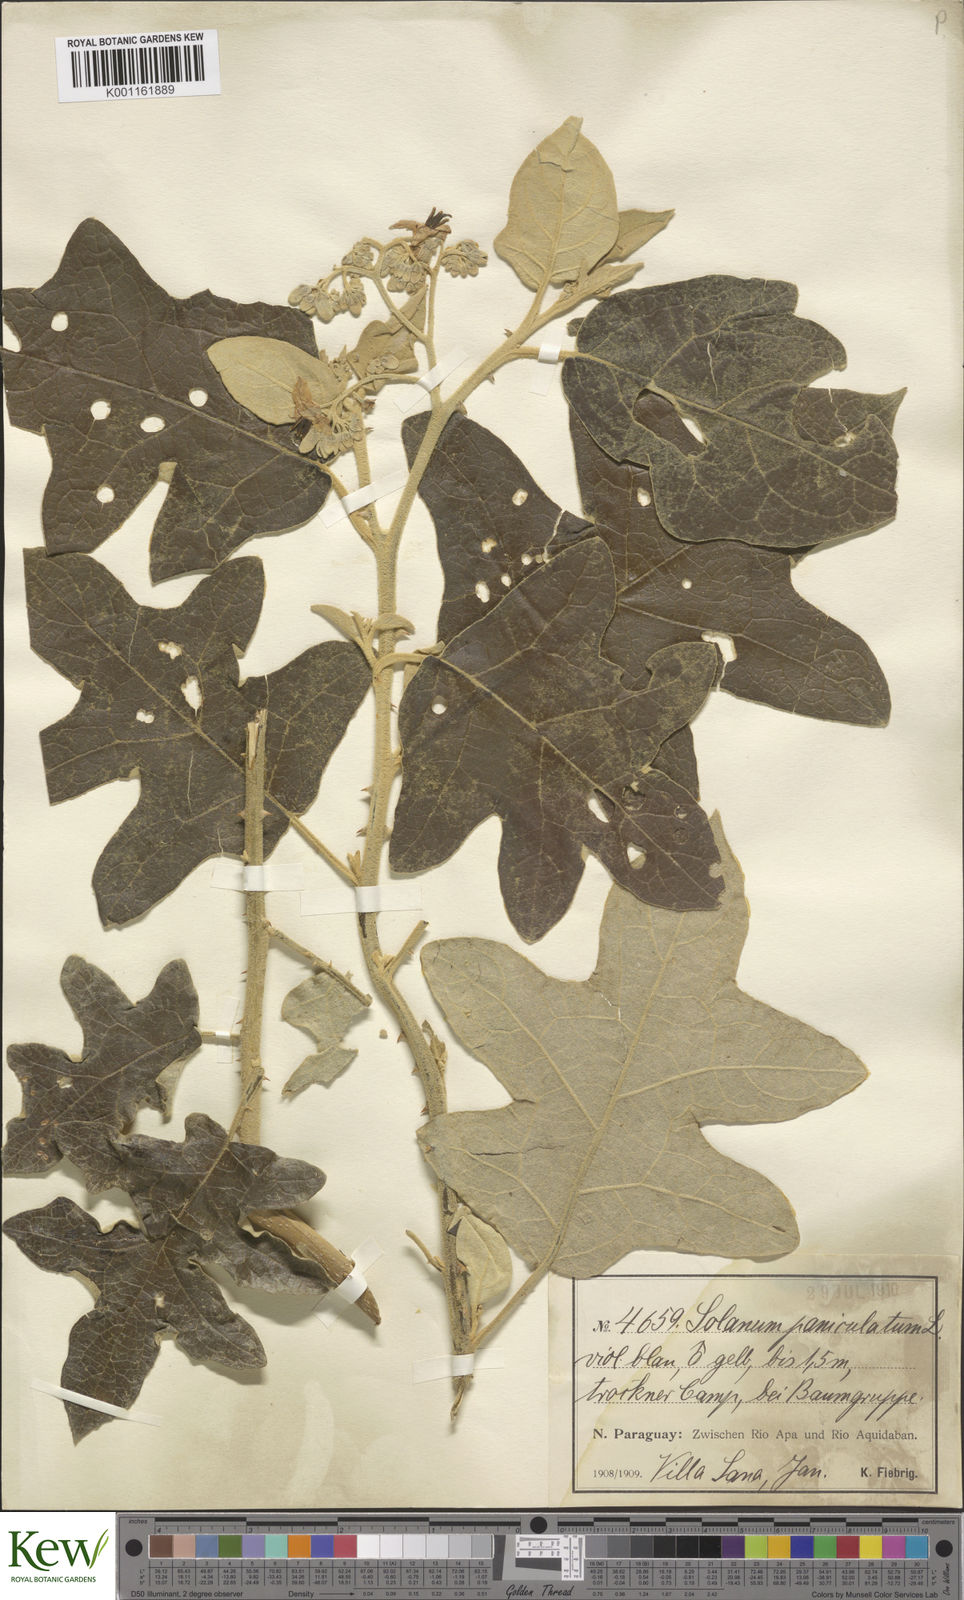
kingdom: Plantae
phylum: Tracheophyta
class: Magnoliopsida
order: Solanales
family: Solanaceae
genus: Solanum
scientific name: Solanum paniculatum
